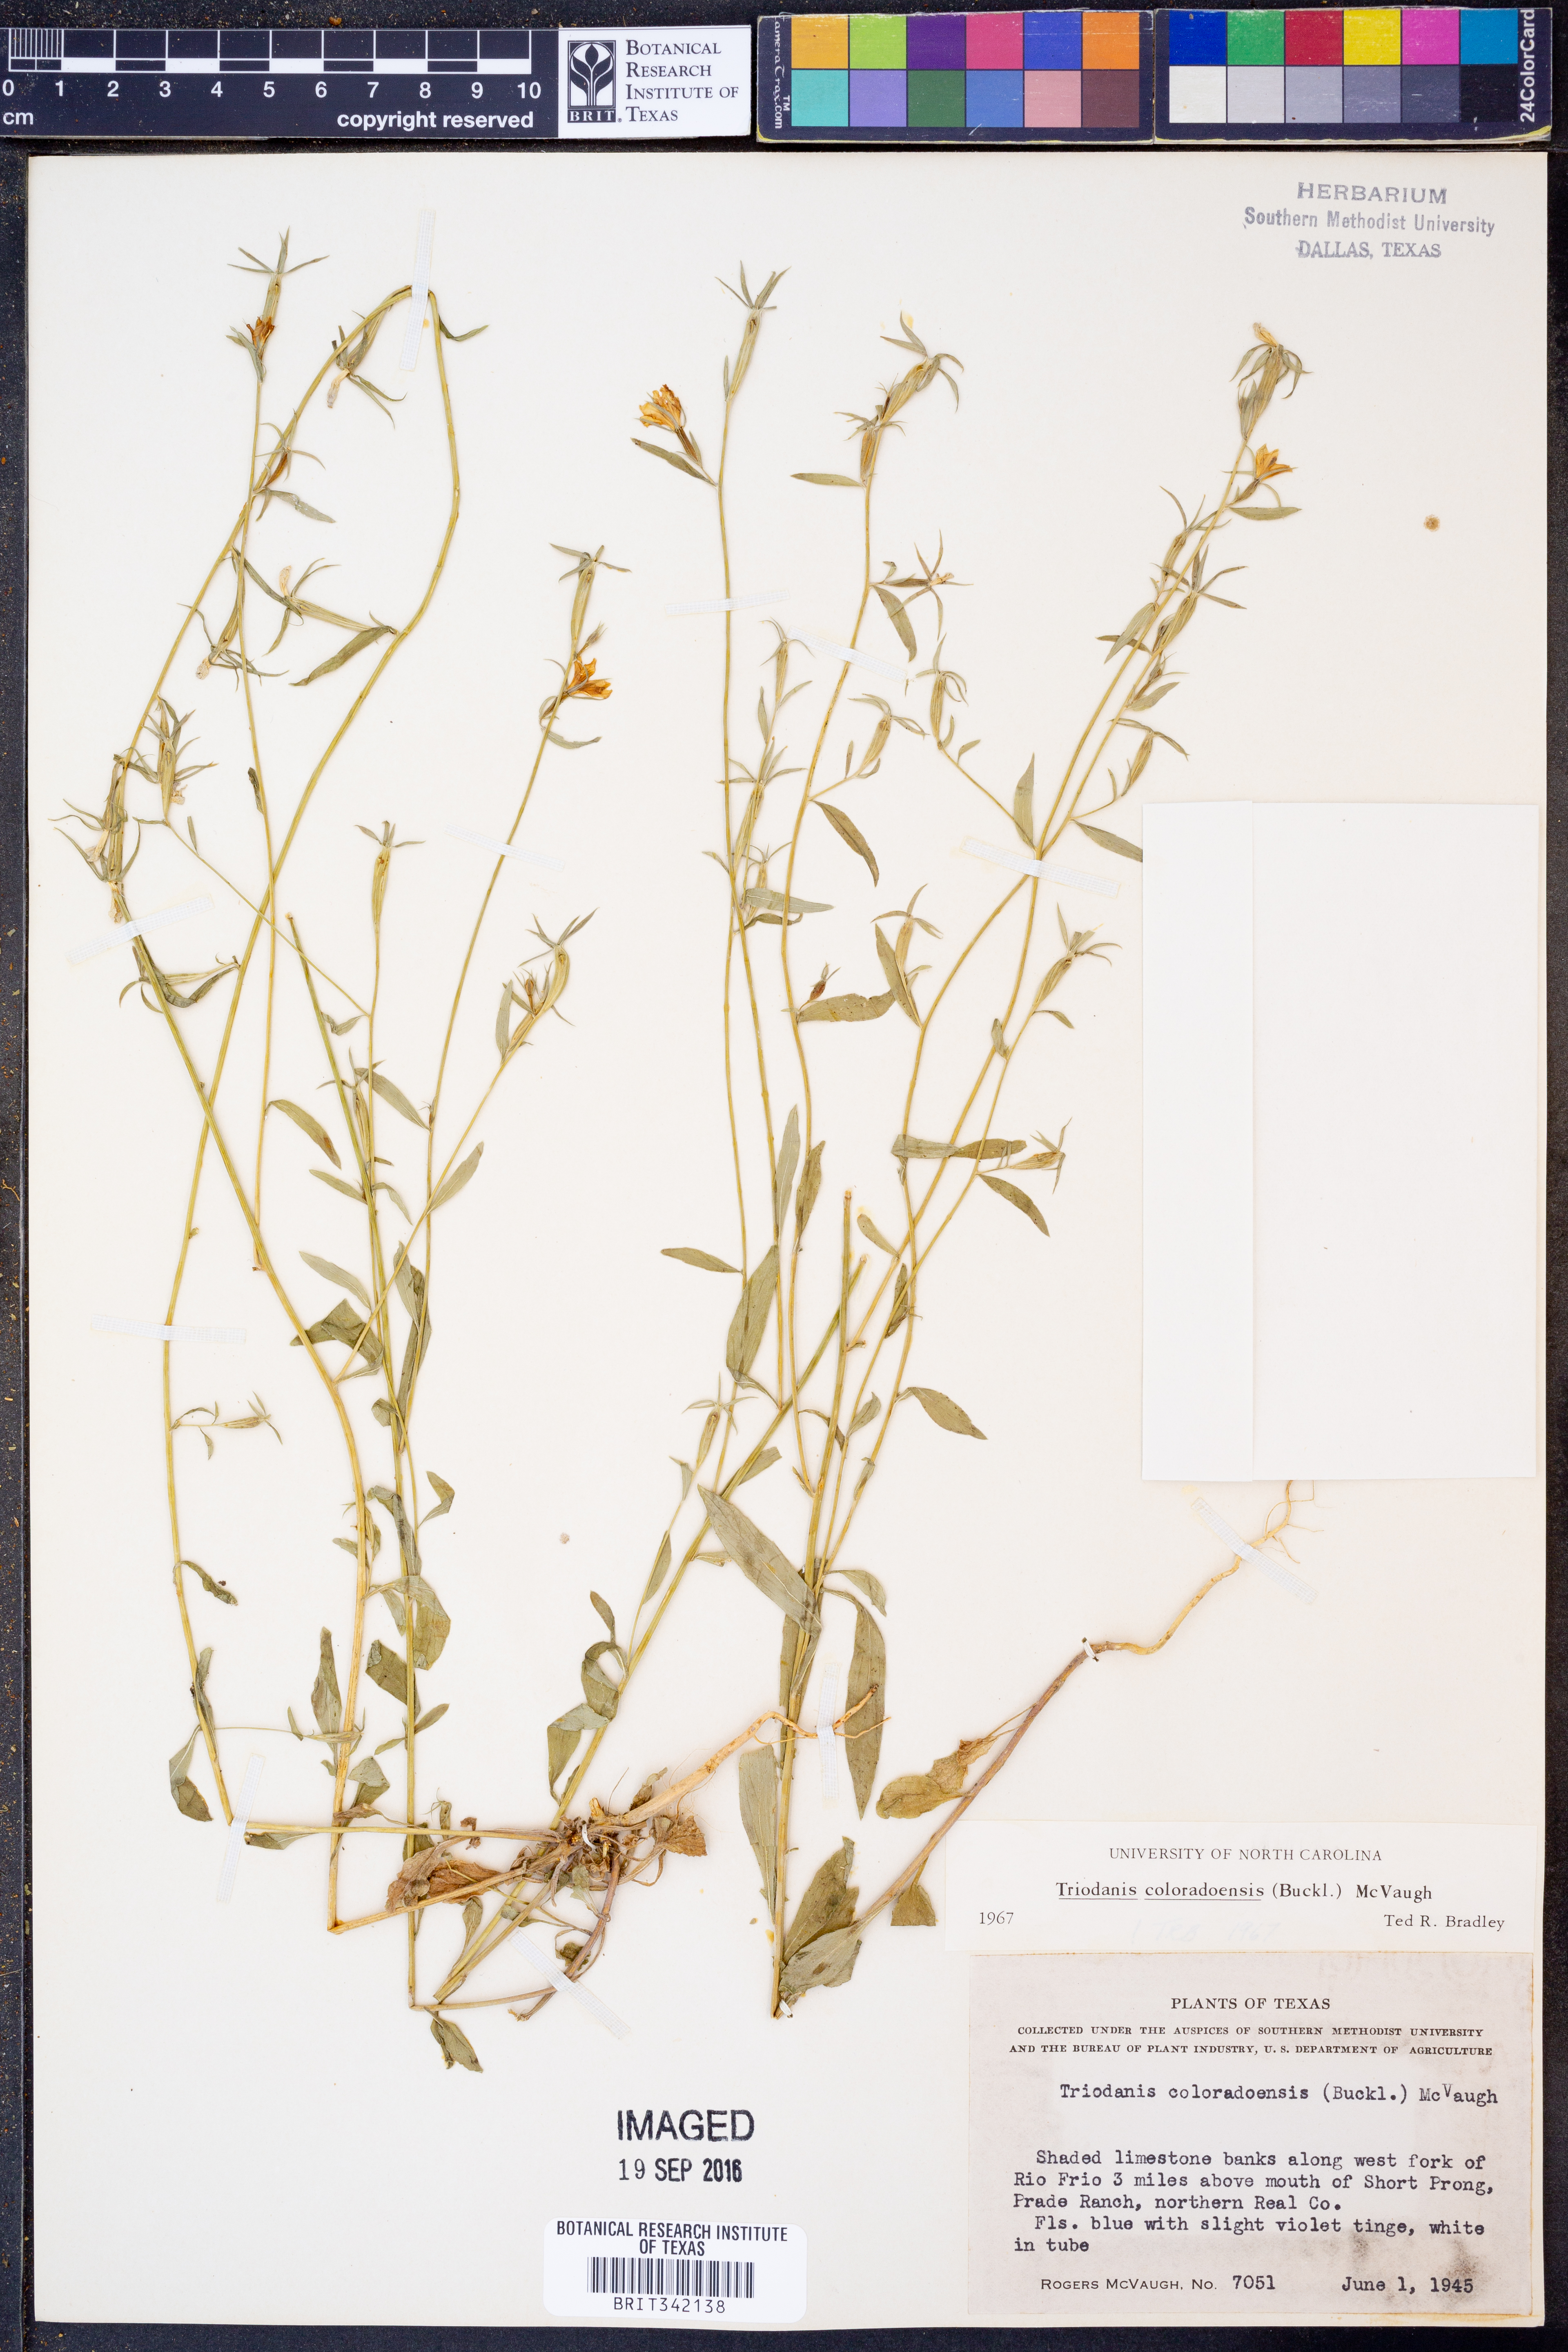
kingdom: Plantae
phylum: Tracheophyta
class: Magnoliopsida
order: Asterales
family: Campanulaceae
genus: Triodanis
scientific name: Triodanis coloradoensis
